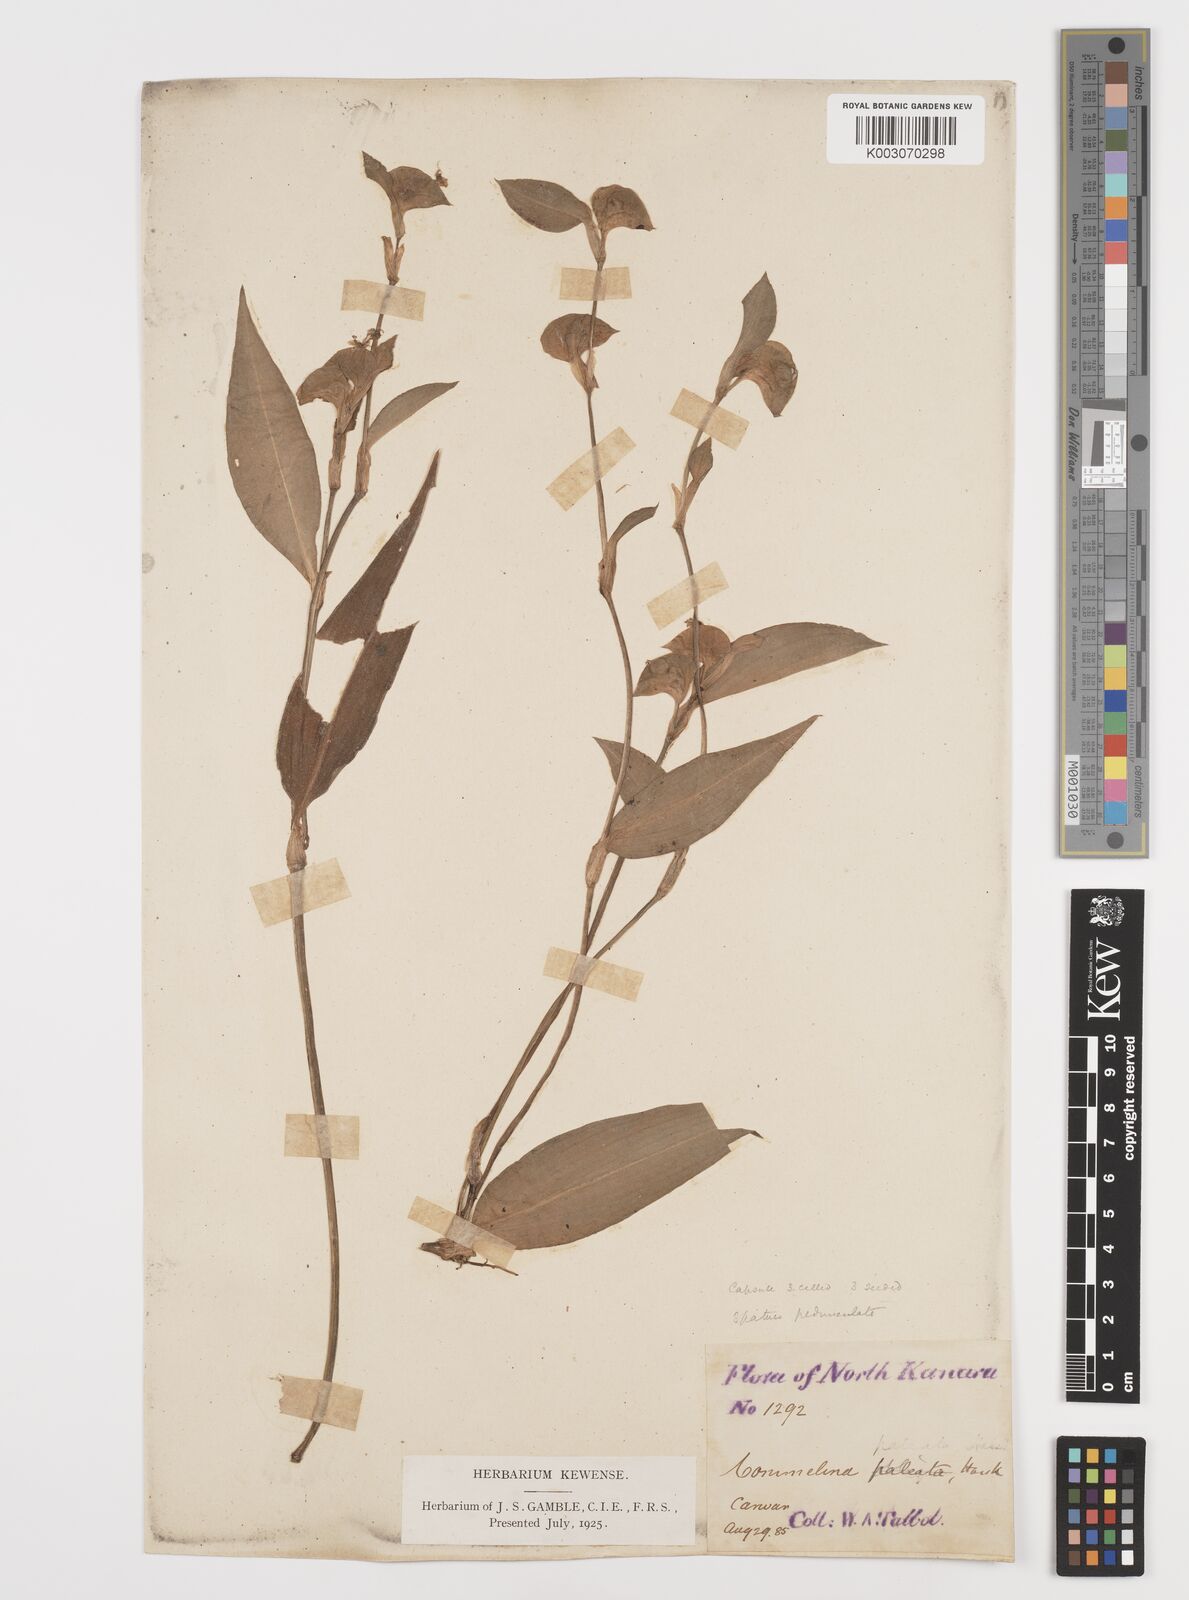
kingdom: Plantae
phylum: Tracheophyta
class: Liliopsida
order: Commelinales
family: Commelinaceae
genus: Commelina
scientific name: Commelina paleata
